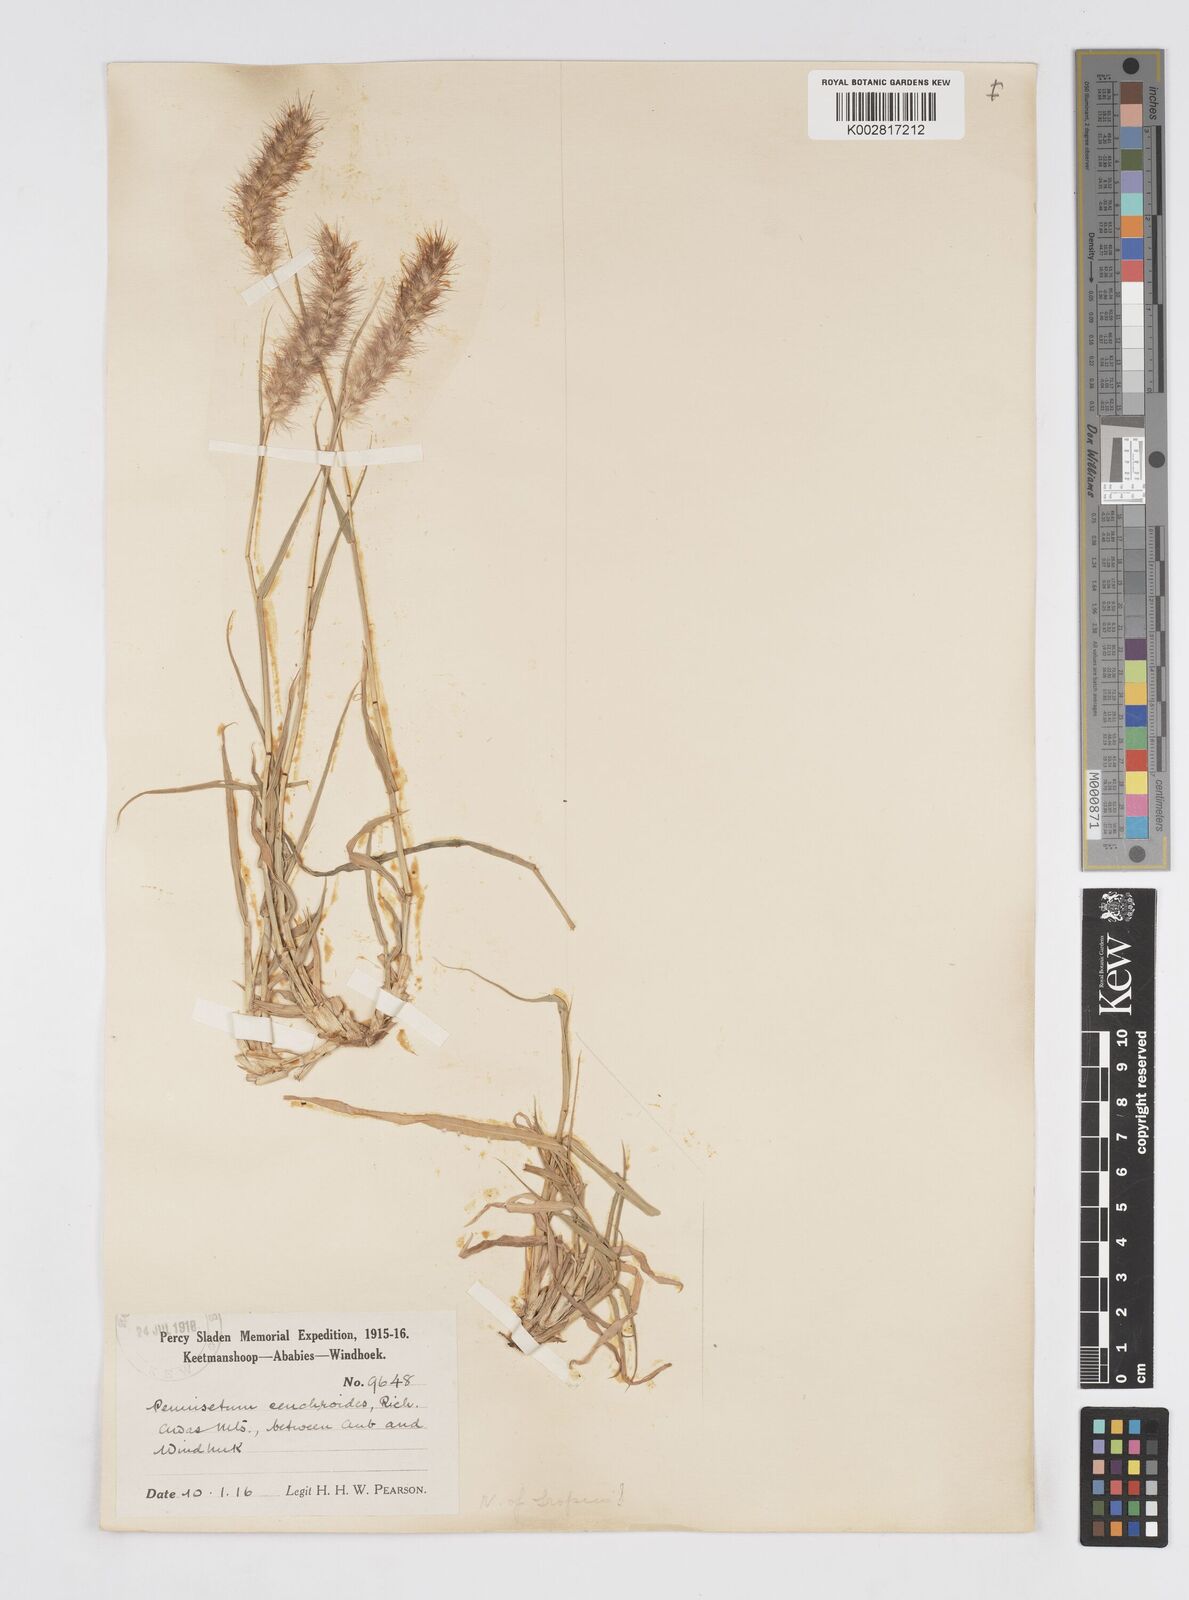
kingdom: Plantae
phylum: Tracheophyta
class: Liliopsida
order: Poales
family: Poaceae
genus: Cenchrus
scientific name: Cenchrus ciliaris
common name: Buffelgrass
